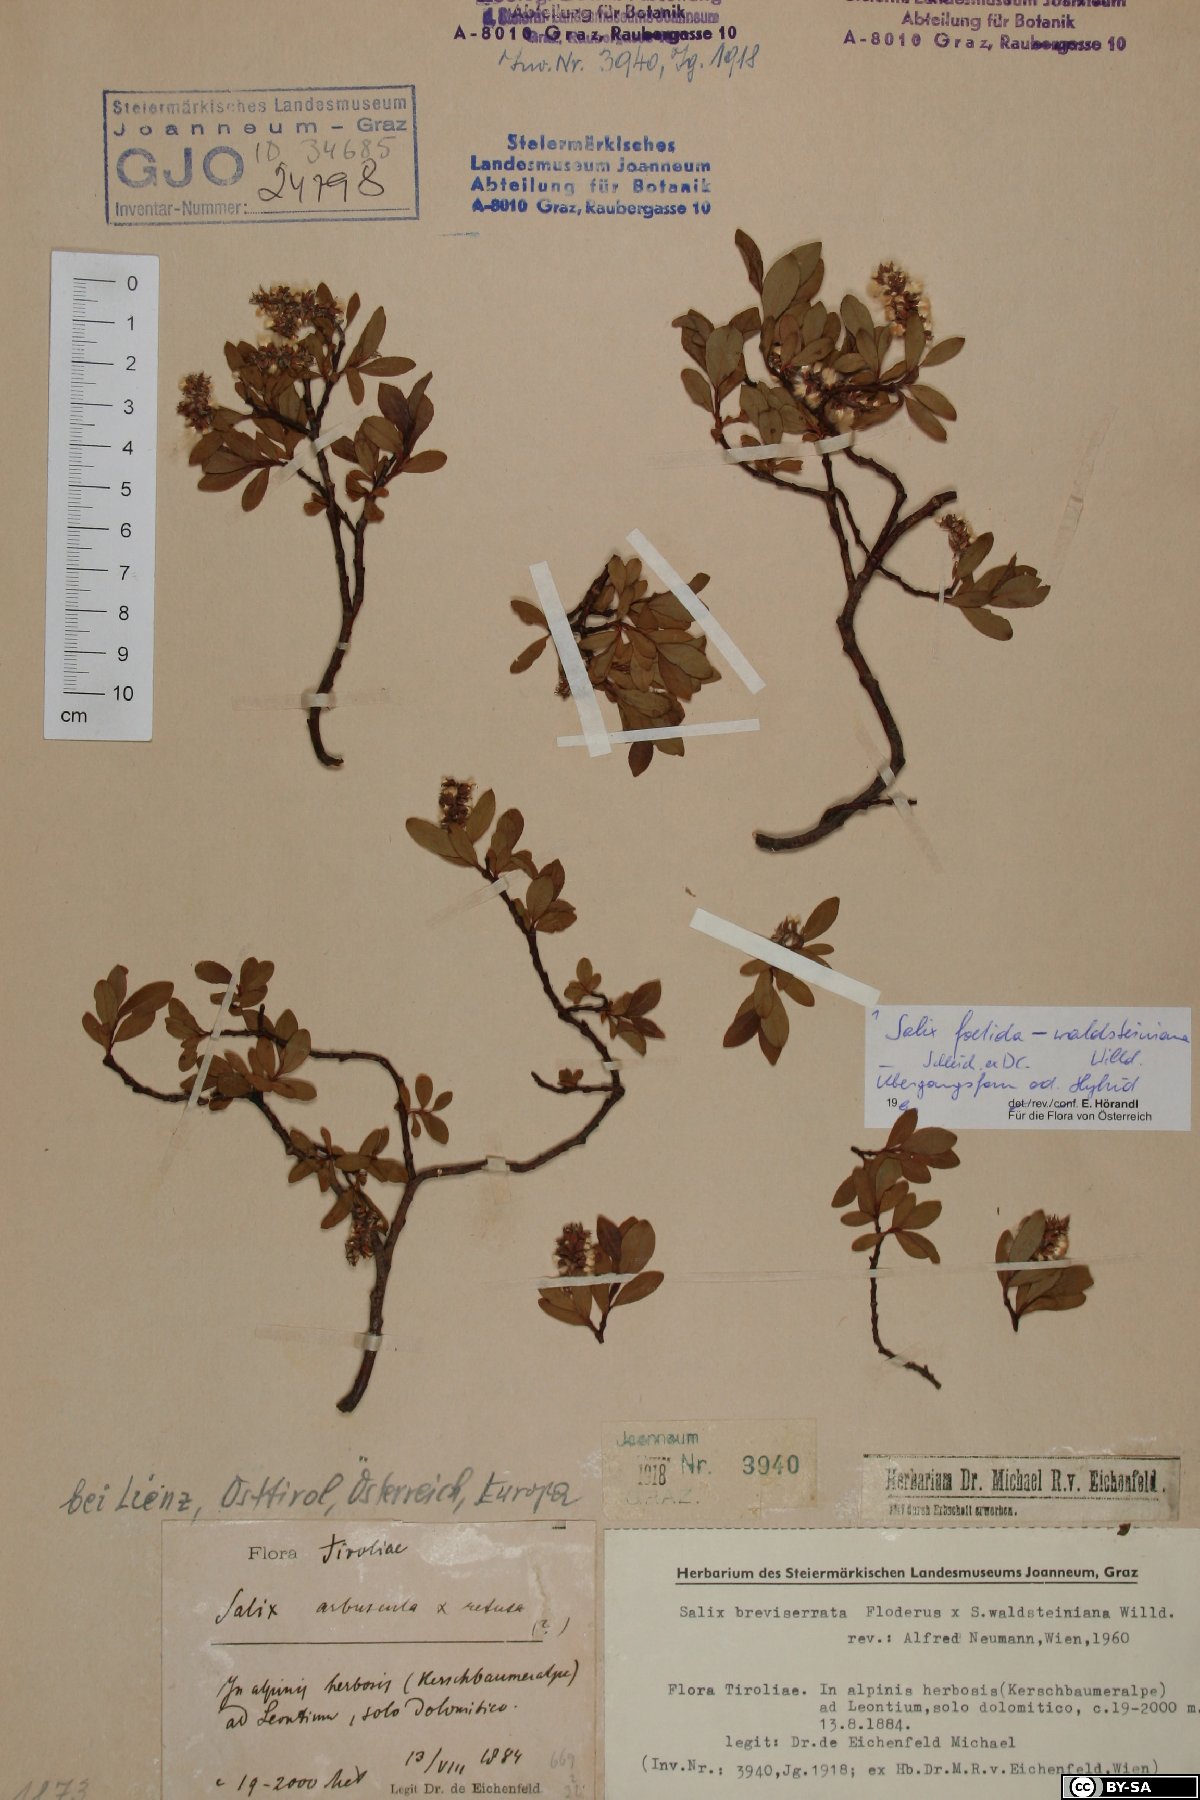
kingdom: Plantae
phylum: Tracheophyta
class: Magnoliopsida
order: Malpighiales
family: Salicaceae
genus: Salix
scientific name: Salix foetida
